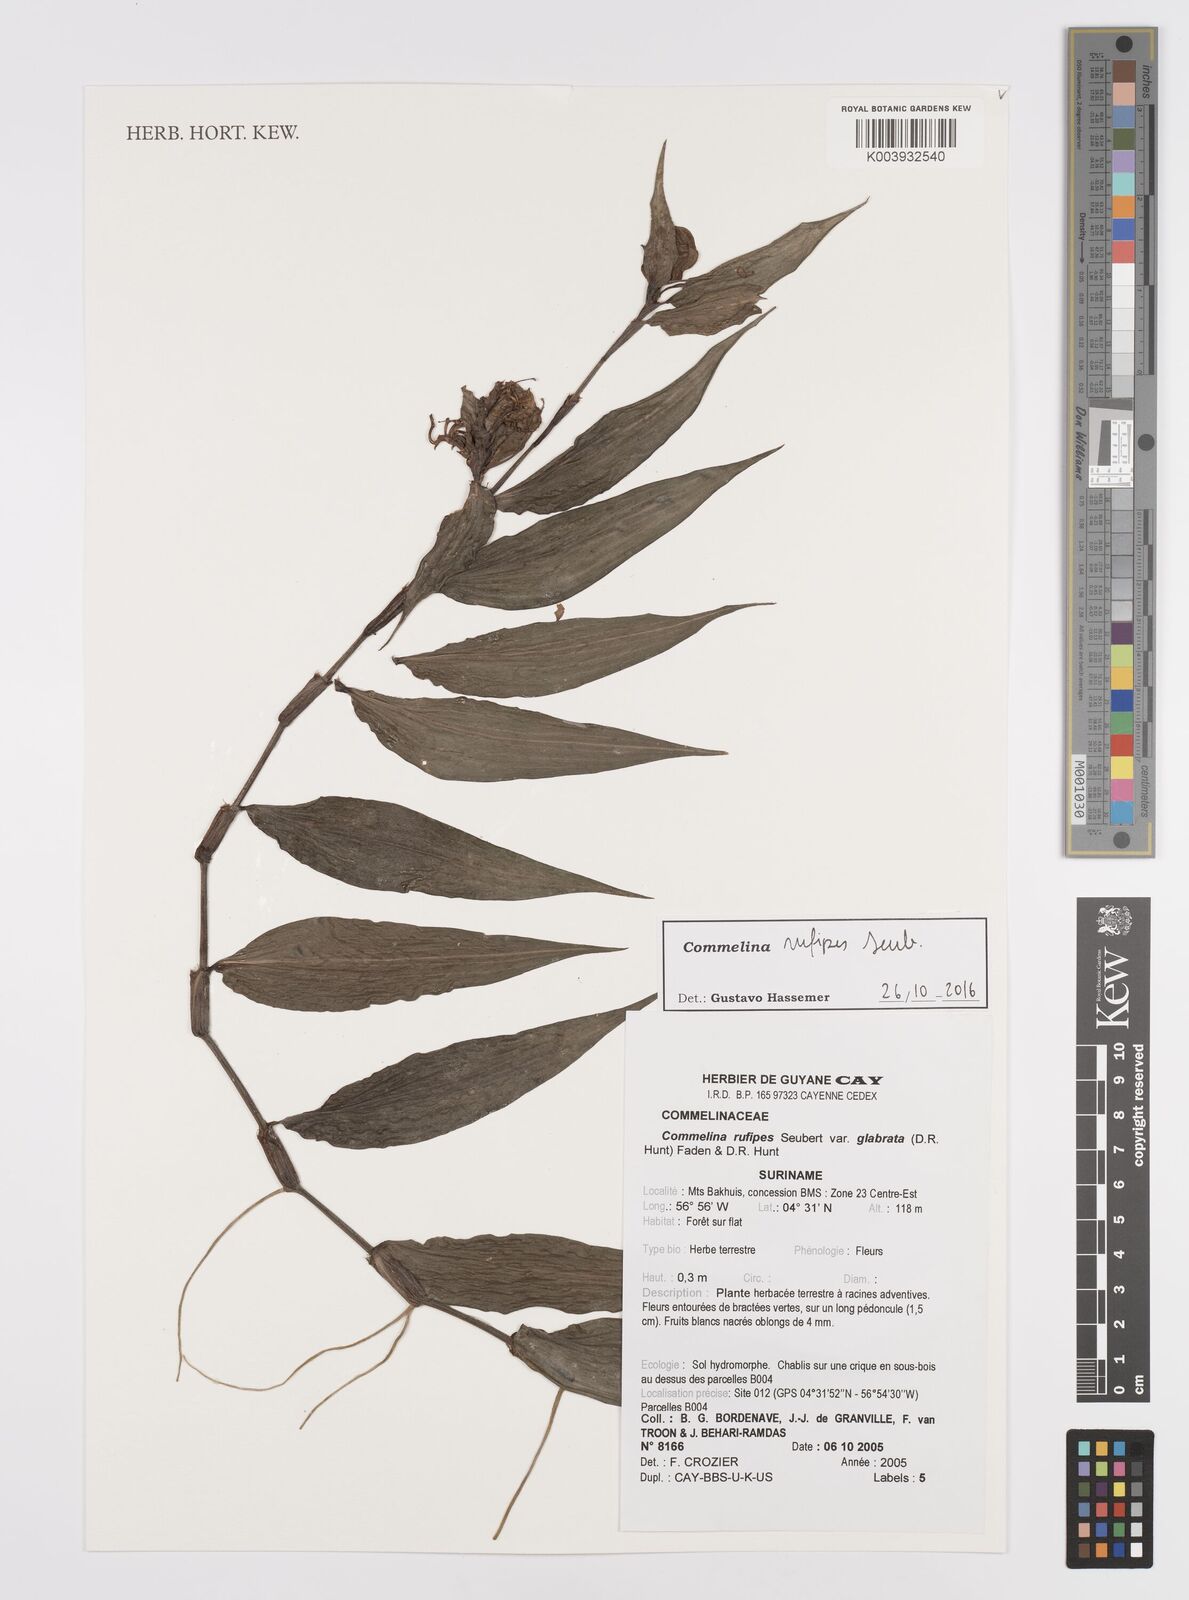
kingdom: Plantae
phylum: Tracheophyta
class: Liliopsida
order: Commelinales
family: Commelinaceae
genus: Commelina
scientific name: Commelina rufipes
